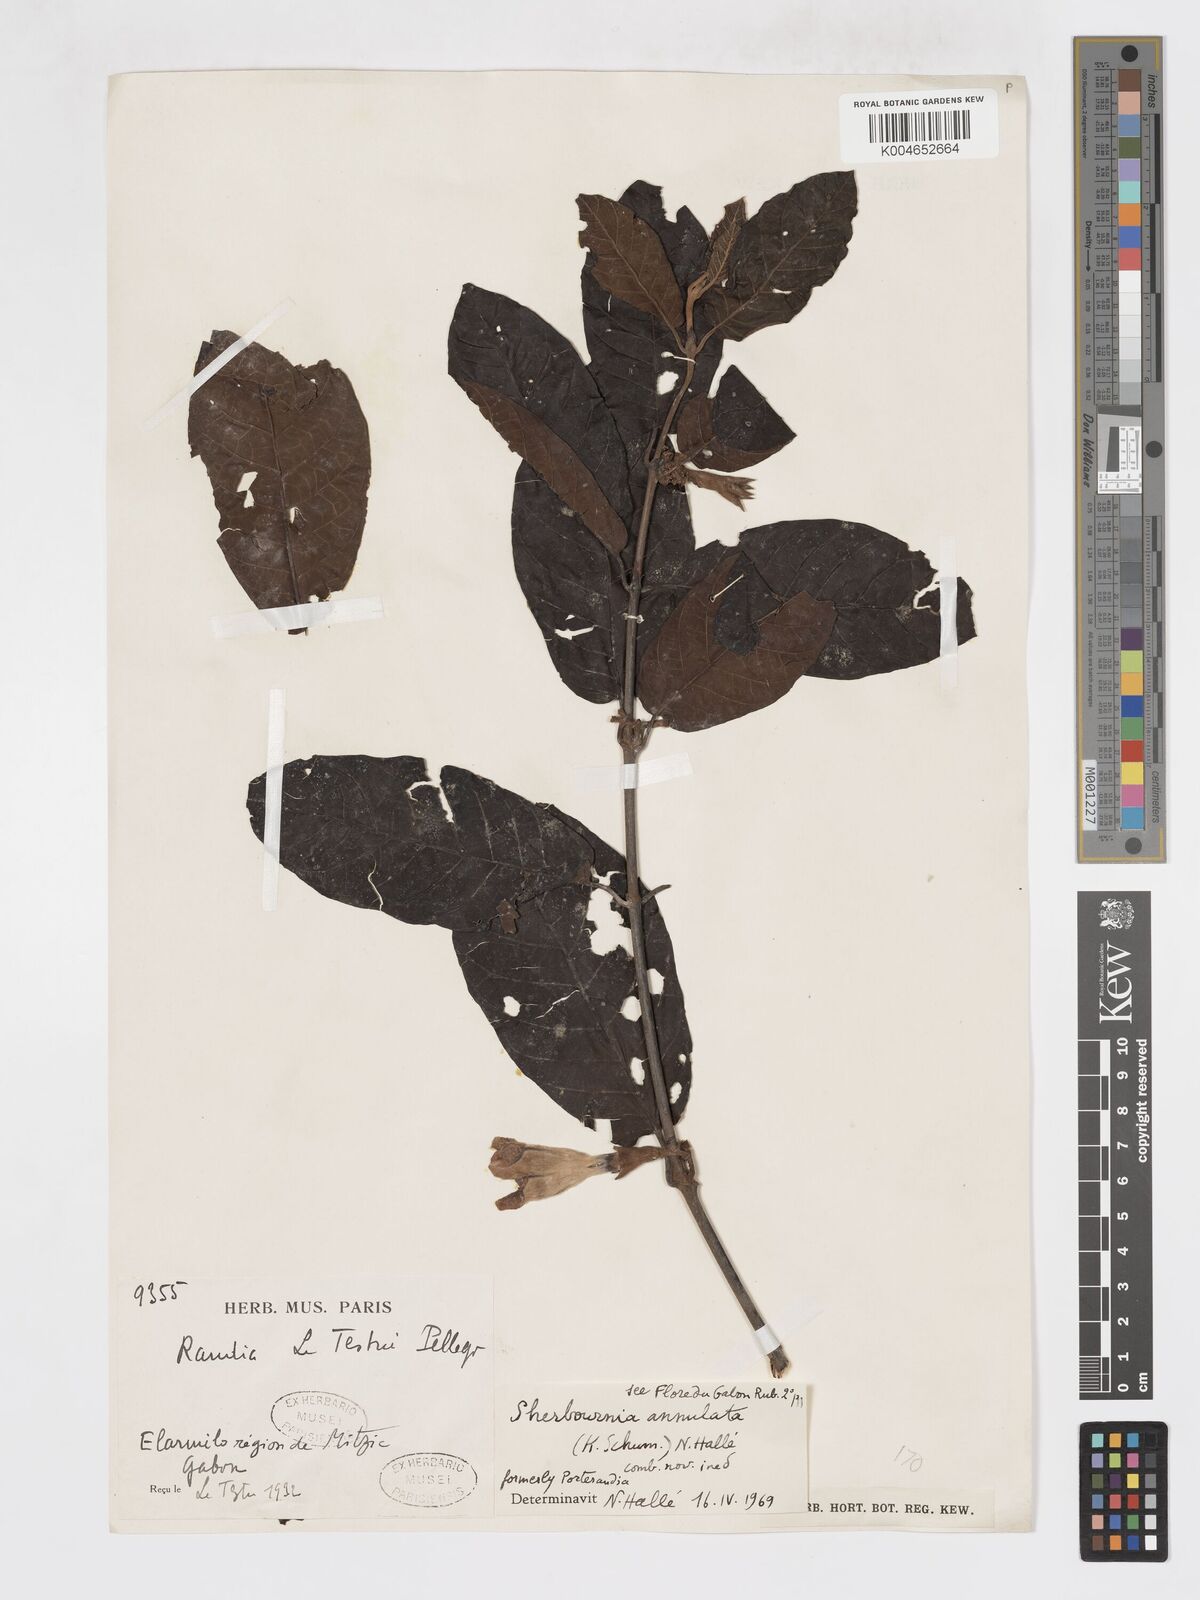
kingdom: Plantae
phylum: Tracheophyta
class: Magnoliopsida
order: Gentianales
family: Rubiaceae
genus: Aoranthe
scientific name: Aoranthe annulata
